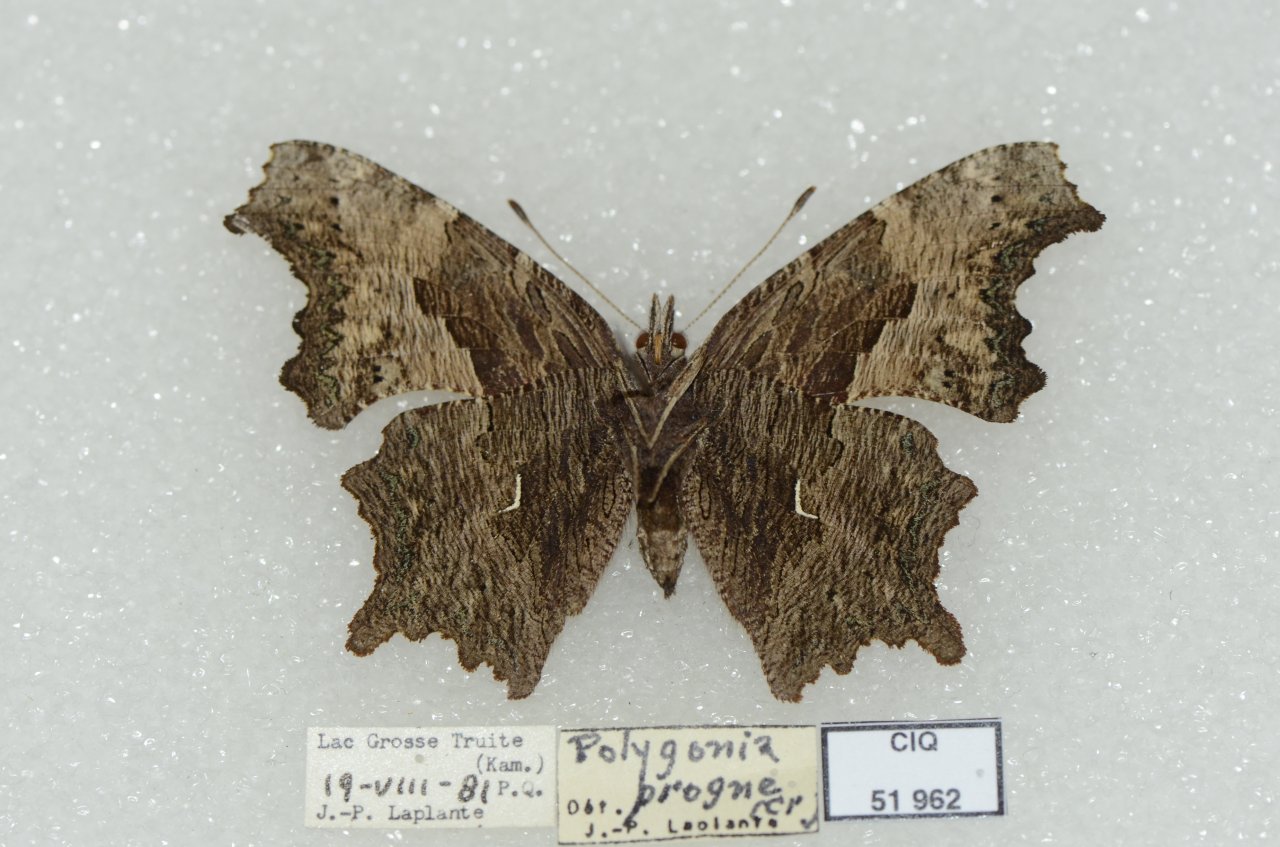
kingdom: Animalia
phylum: Arthropoda
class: Insecta
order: Lepidoptera
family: Nymphalidae
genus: Polygonia
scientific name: Polygonia progne
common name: Gray Comma
